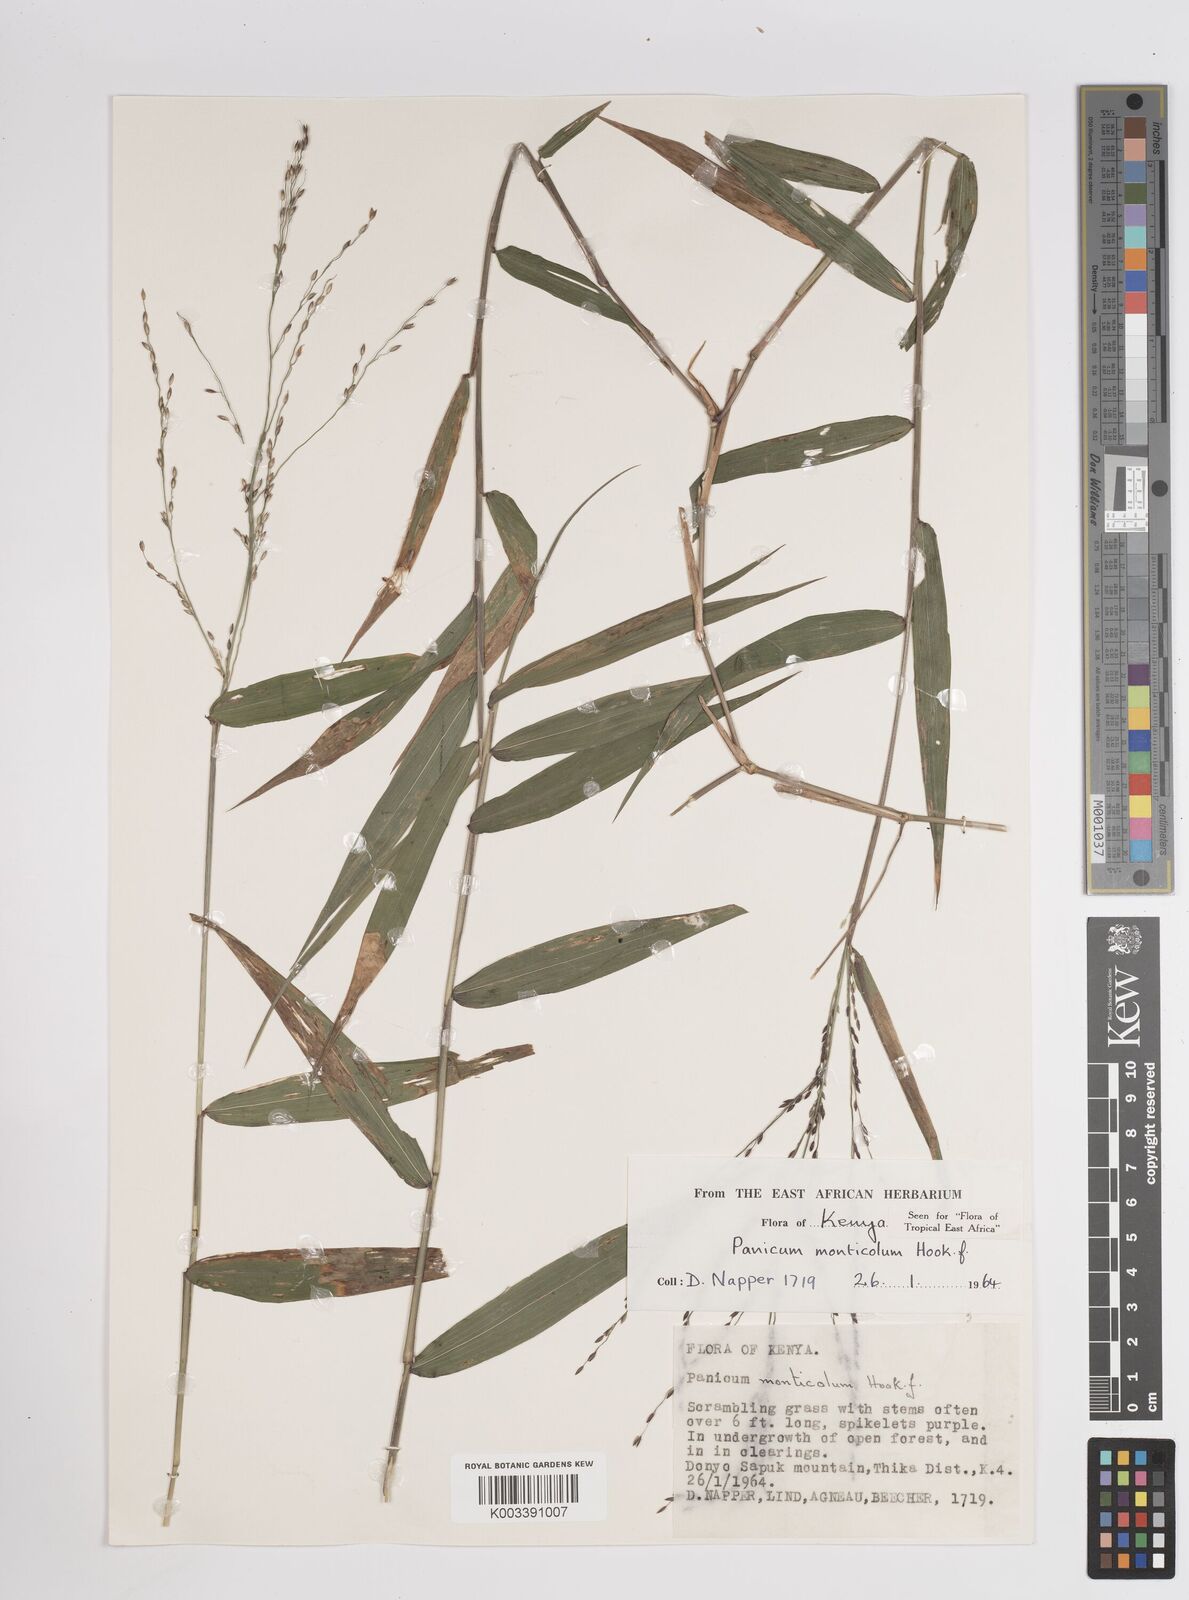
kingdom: Plantae
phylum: Tracheophyta
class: Liliopsida
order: Poales
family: Poaceae
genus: Panicum
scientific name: Panicum monticola
